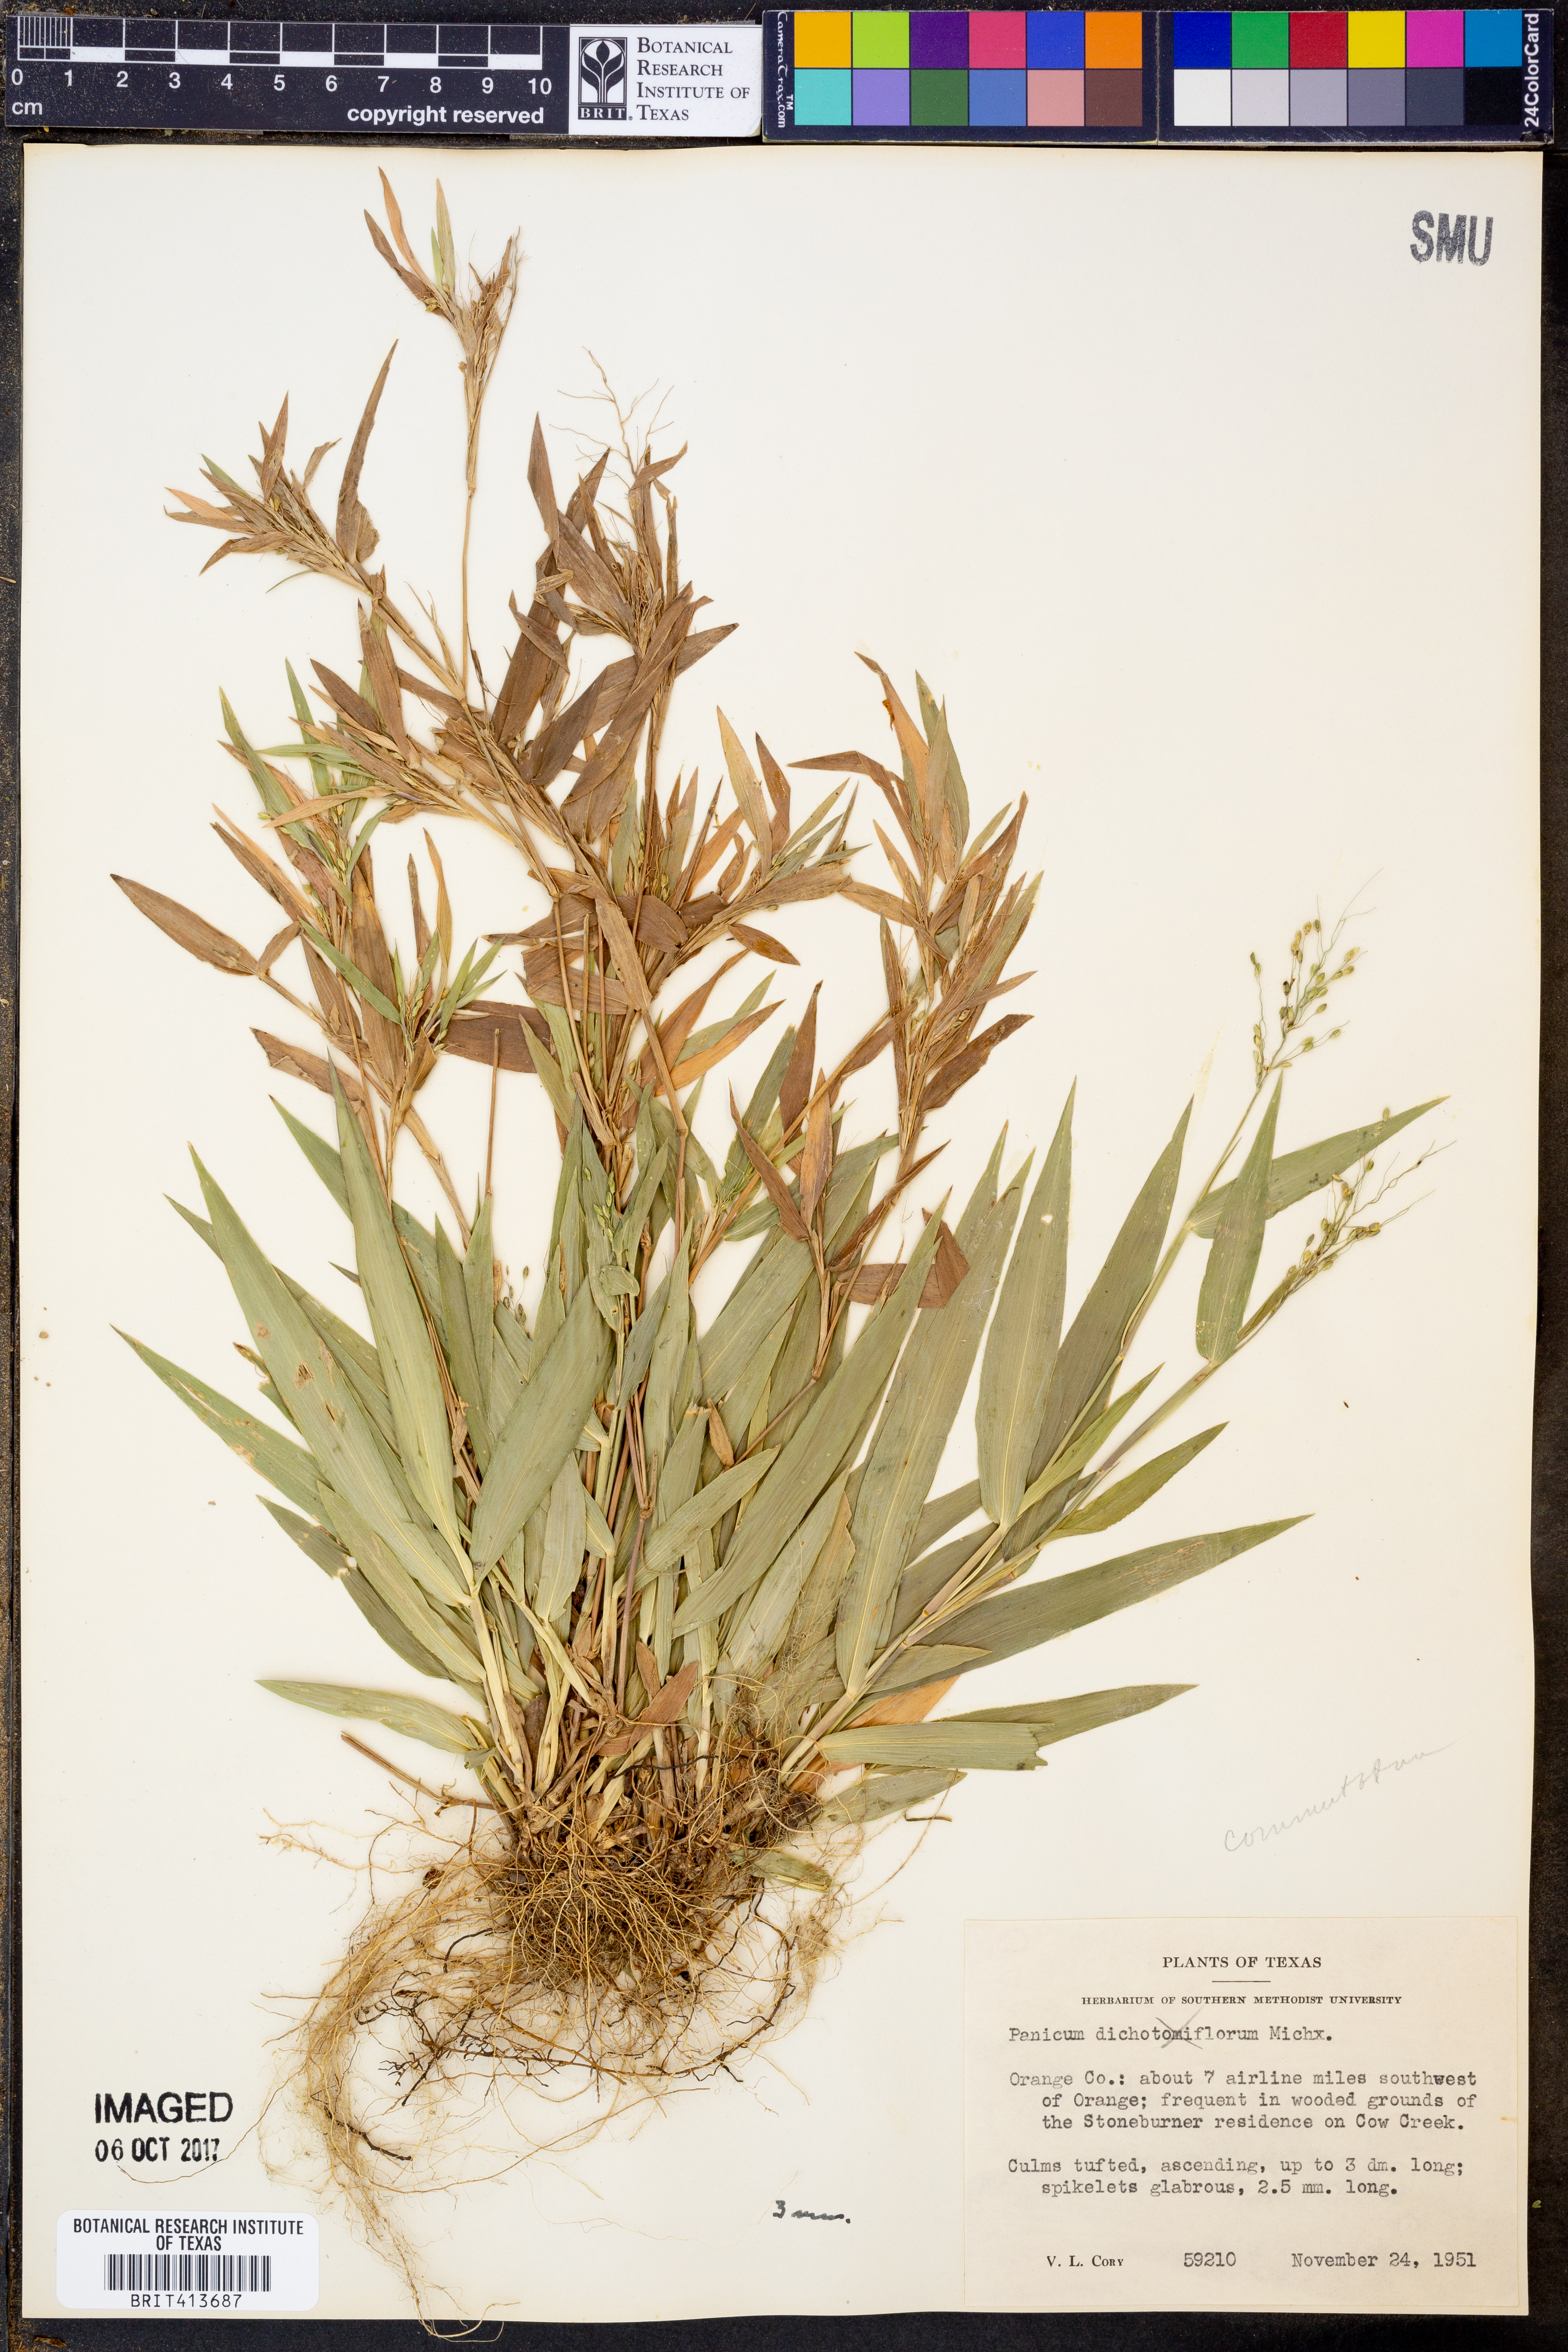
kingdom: Plantae
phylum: Tracheophyta
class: Liliopsida
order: Poales
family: Poaceae
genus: Dichanthelium
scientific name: Dichanthelium commutatum
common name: Variable witchgrass
